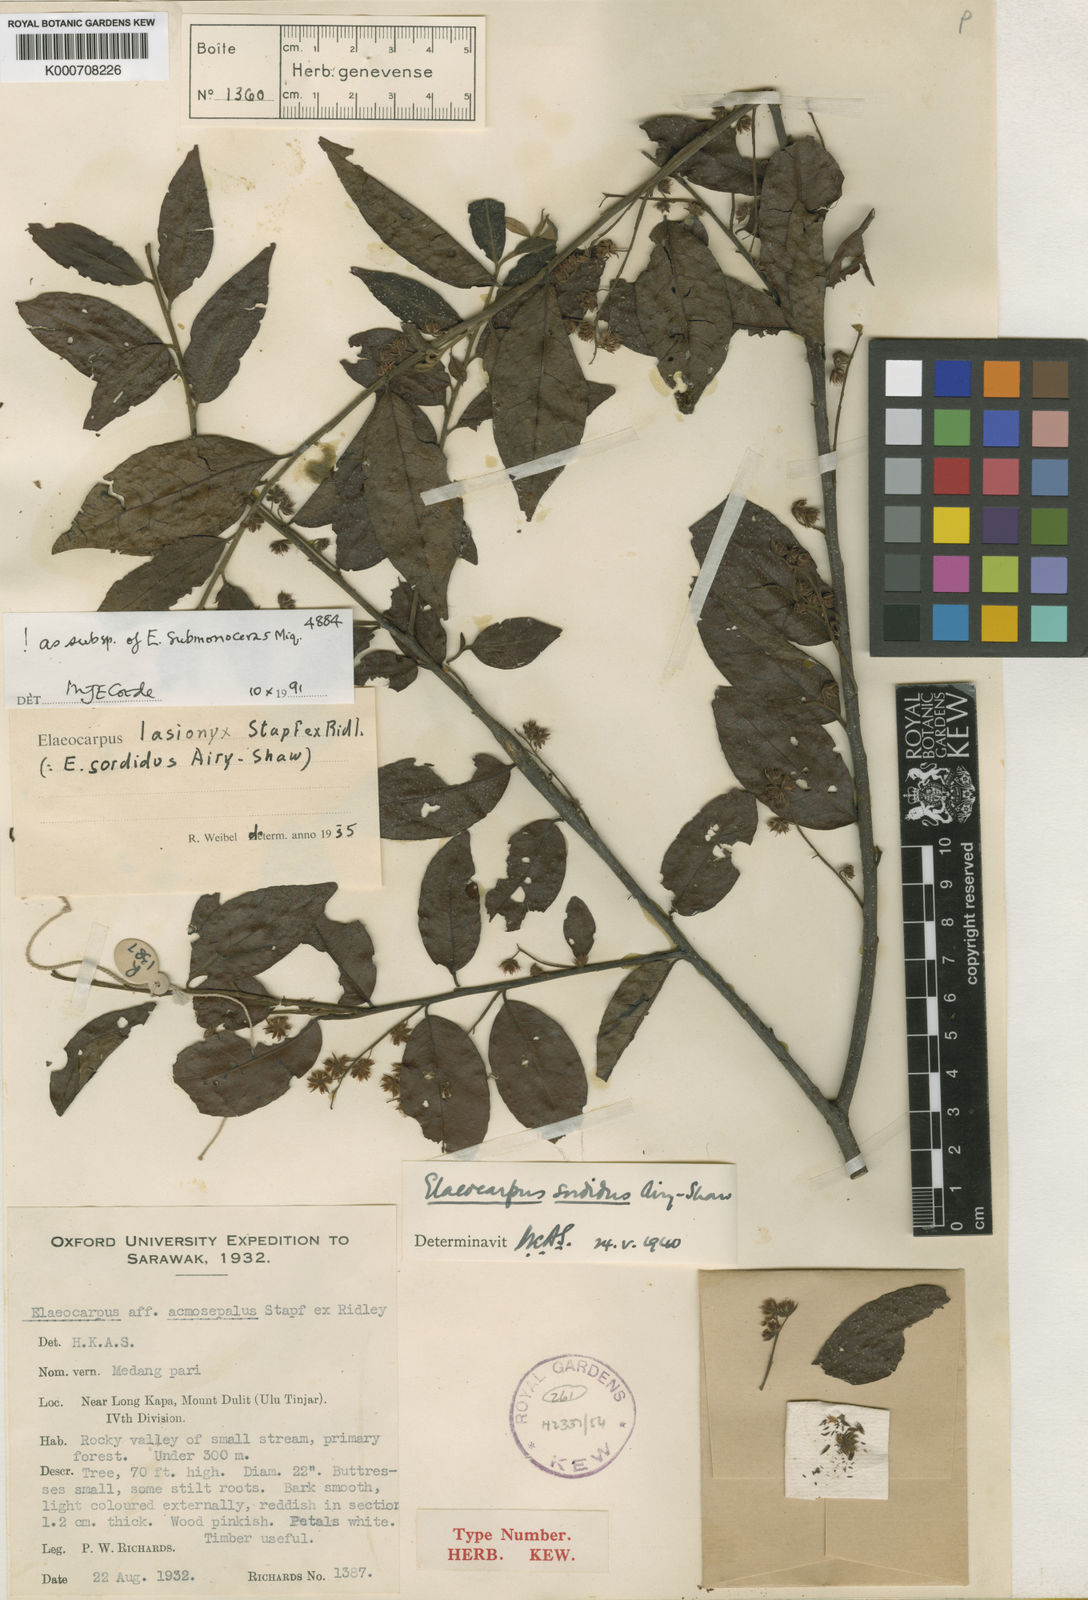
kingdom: Plantae
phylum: Tracheophyta
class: Magnoliopsida
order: Oxalidales
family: Elaeocarpaceae
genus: Elaeocarpus
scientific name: Elaeocarpus submonoceras
